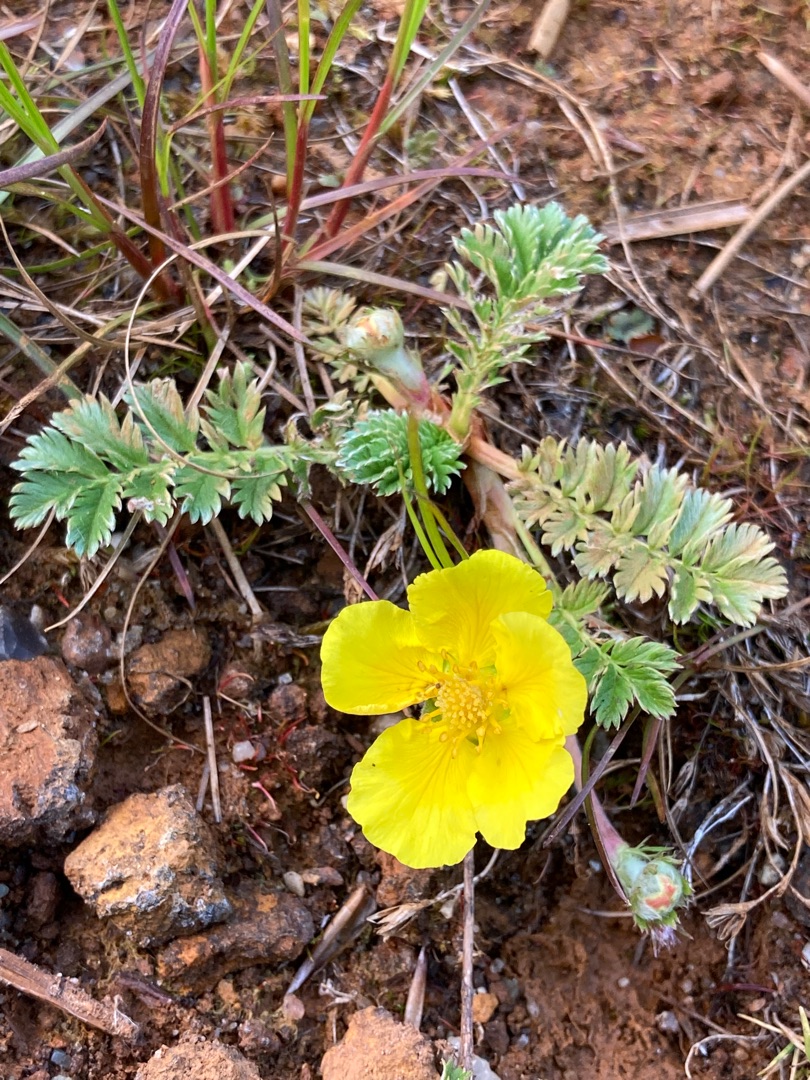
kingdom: Plantae
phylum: Tracheophyta
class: Magnoliopsida
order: Rosales
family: Rosaceae
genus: Argentina
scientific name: Argentina anserina
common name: Gåsepotentil
